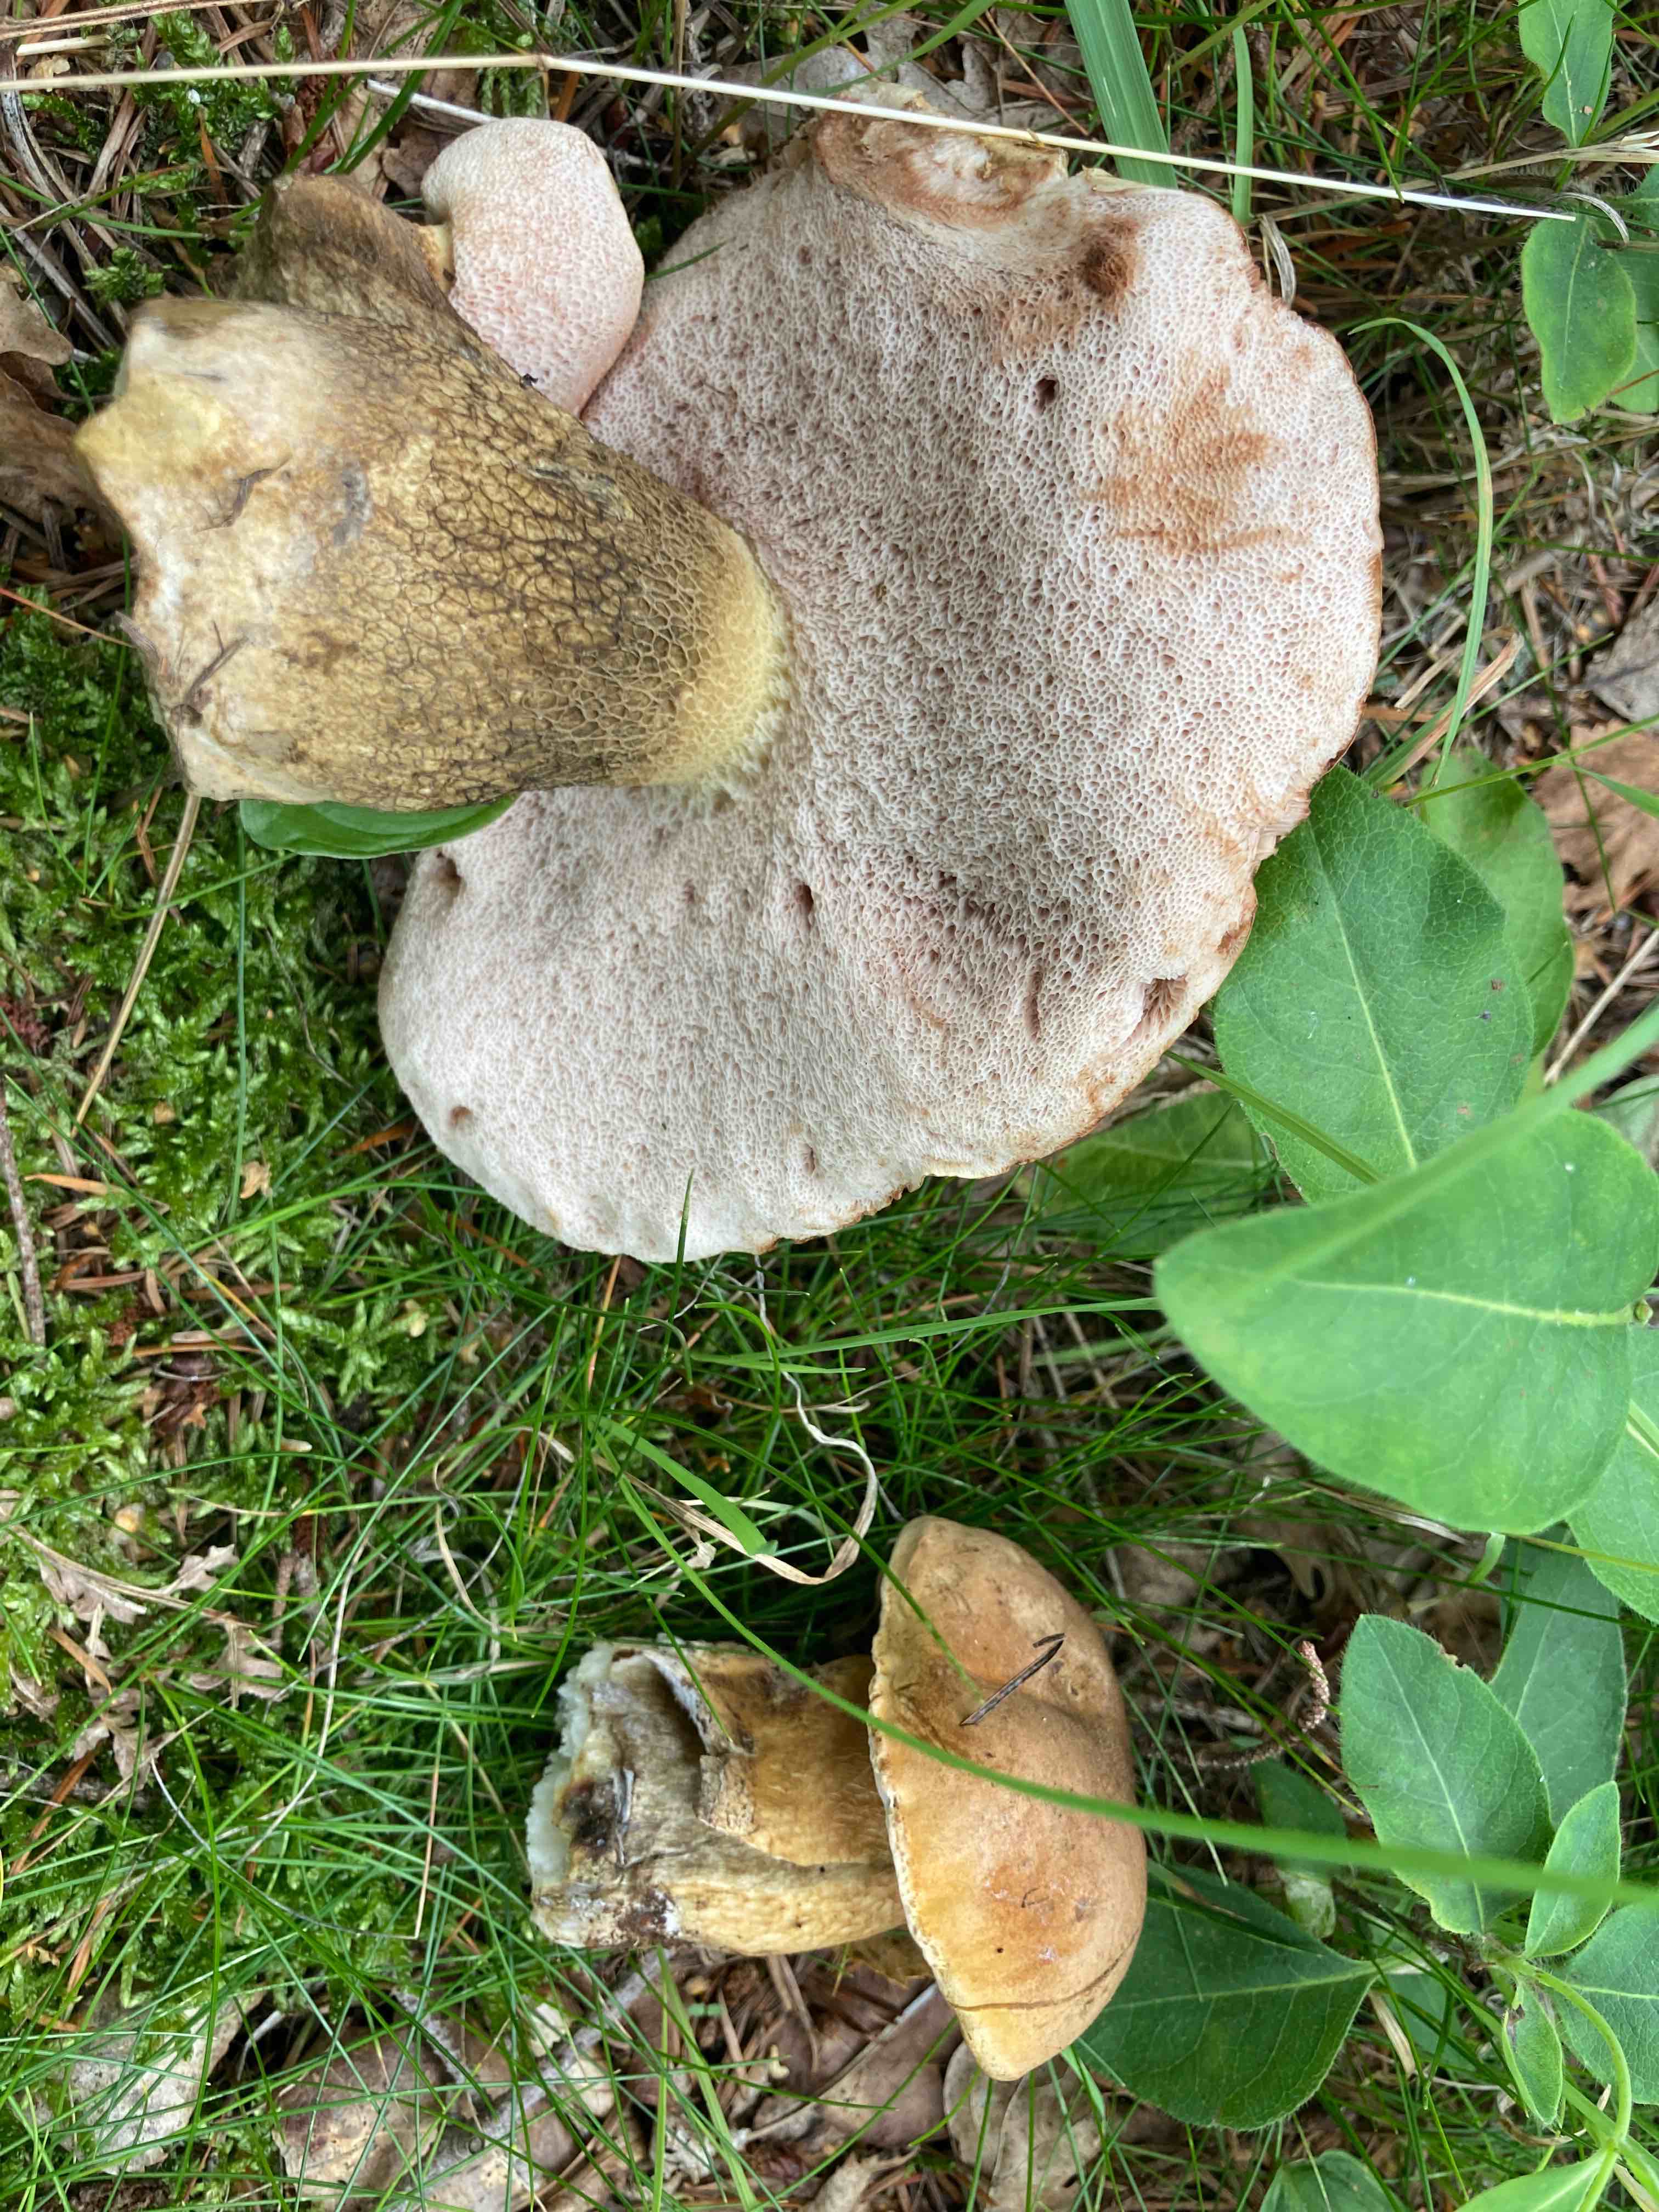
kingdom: Fungi
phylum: Basidiomycota
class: Agaricomycetes
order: Boletales
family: Boletaceae
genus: Tylopilus
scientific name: Tylopilus felleus
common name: galderørhat
